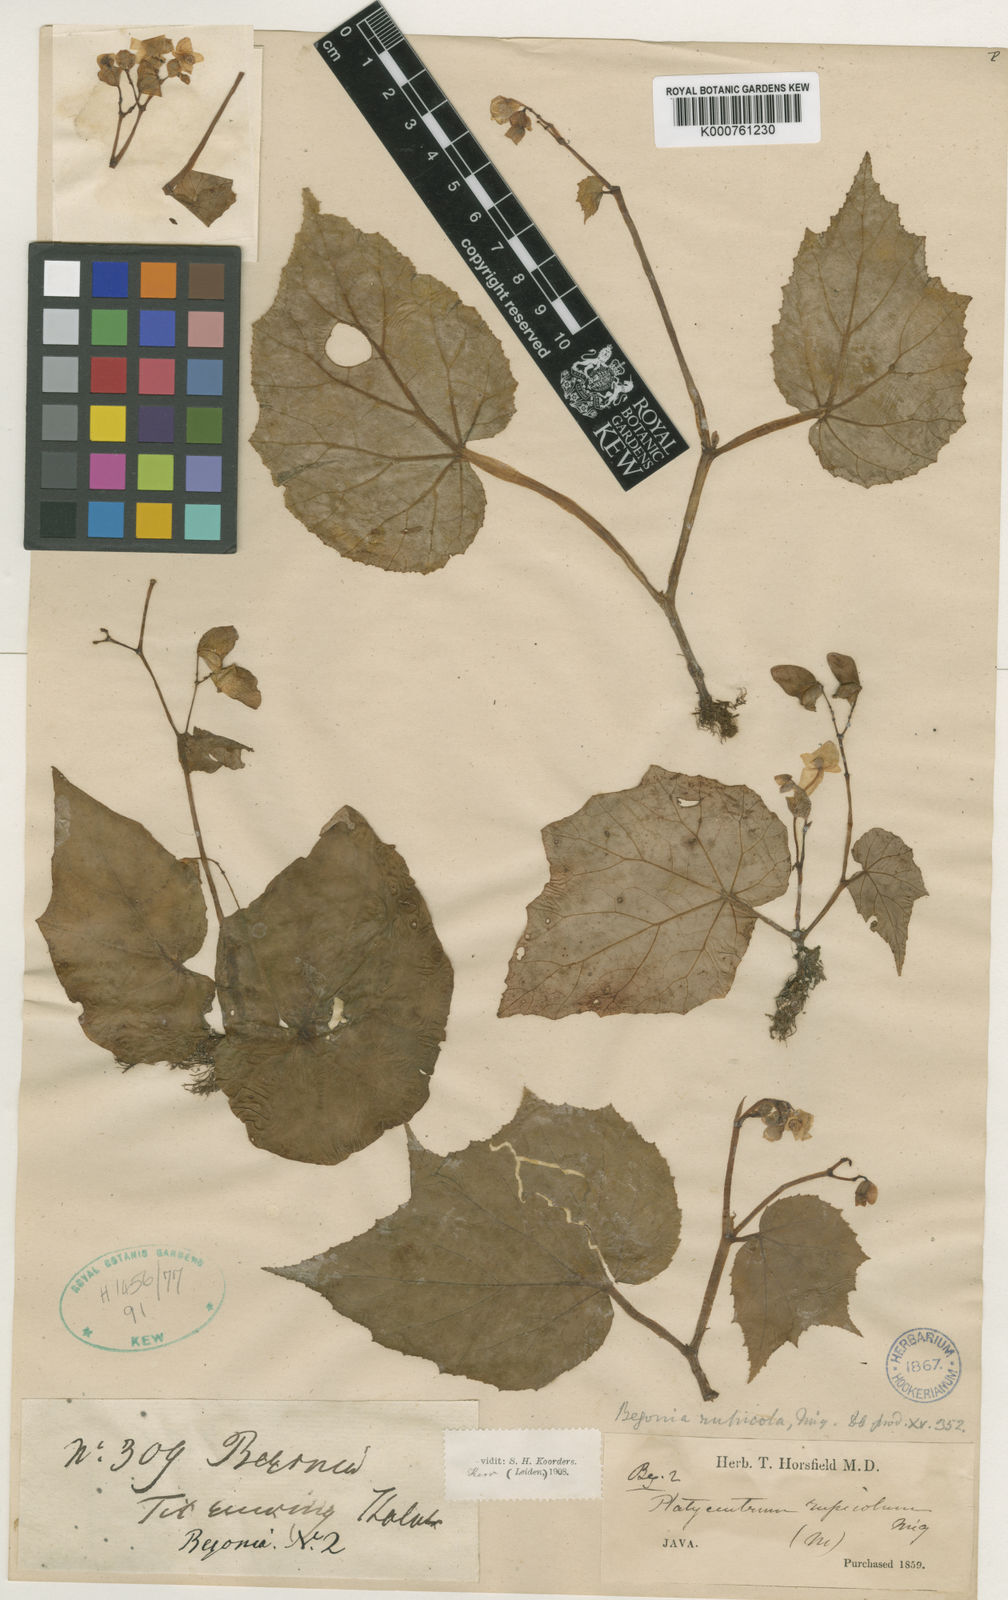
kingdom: Plantae
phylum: Tracheophyta
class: Magnoliopsida
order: Cucurbitales
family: Begoniaceae
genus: Begonia
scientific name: Begonia tenuifolia
